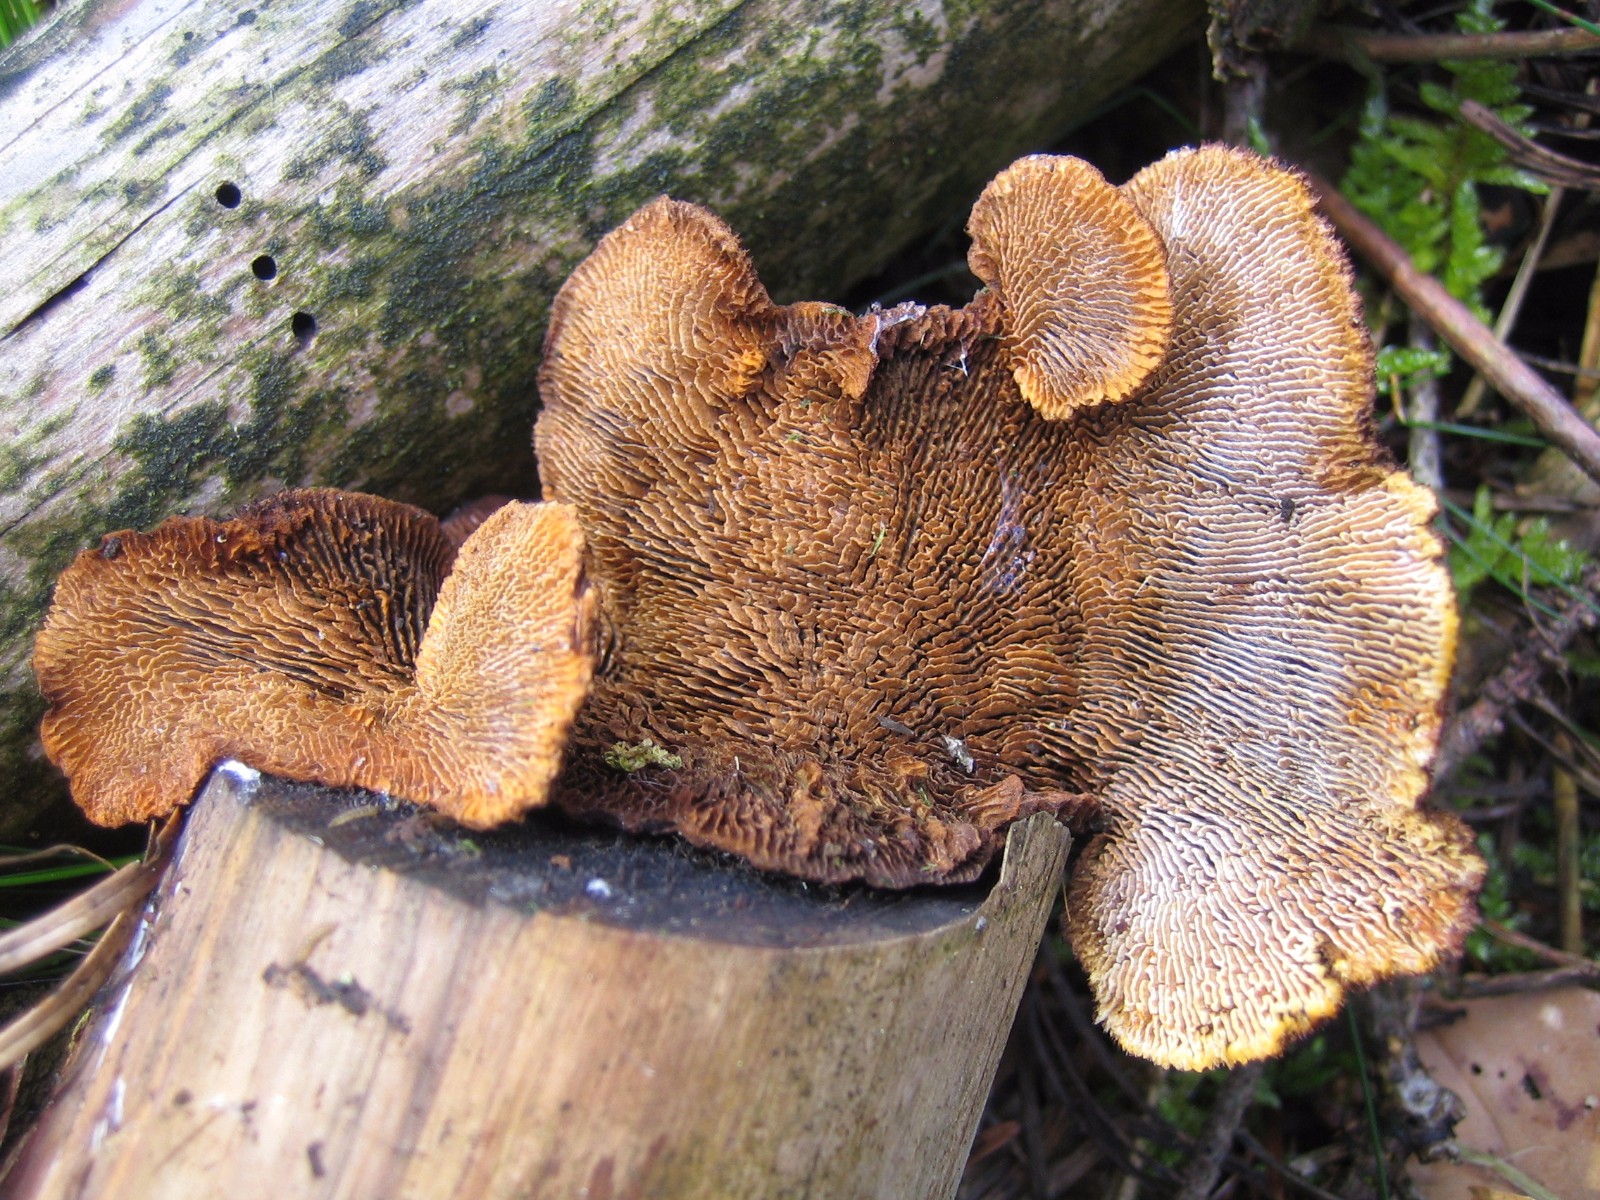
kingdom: Fungi
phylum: Basidiomycota
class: Agaricomycetes
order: Gloeophyllales
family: Gloeophyllaceae
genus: Gloeophyllum
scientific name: Gloeophyllum sepiarium
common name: fyrre-korkhat
